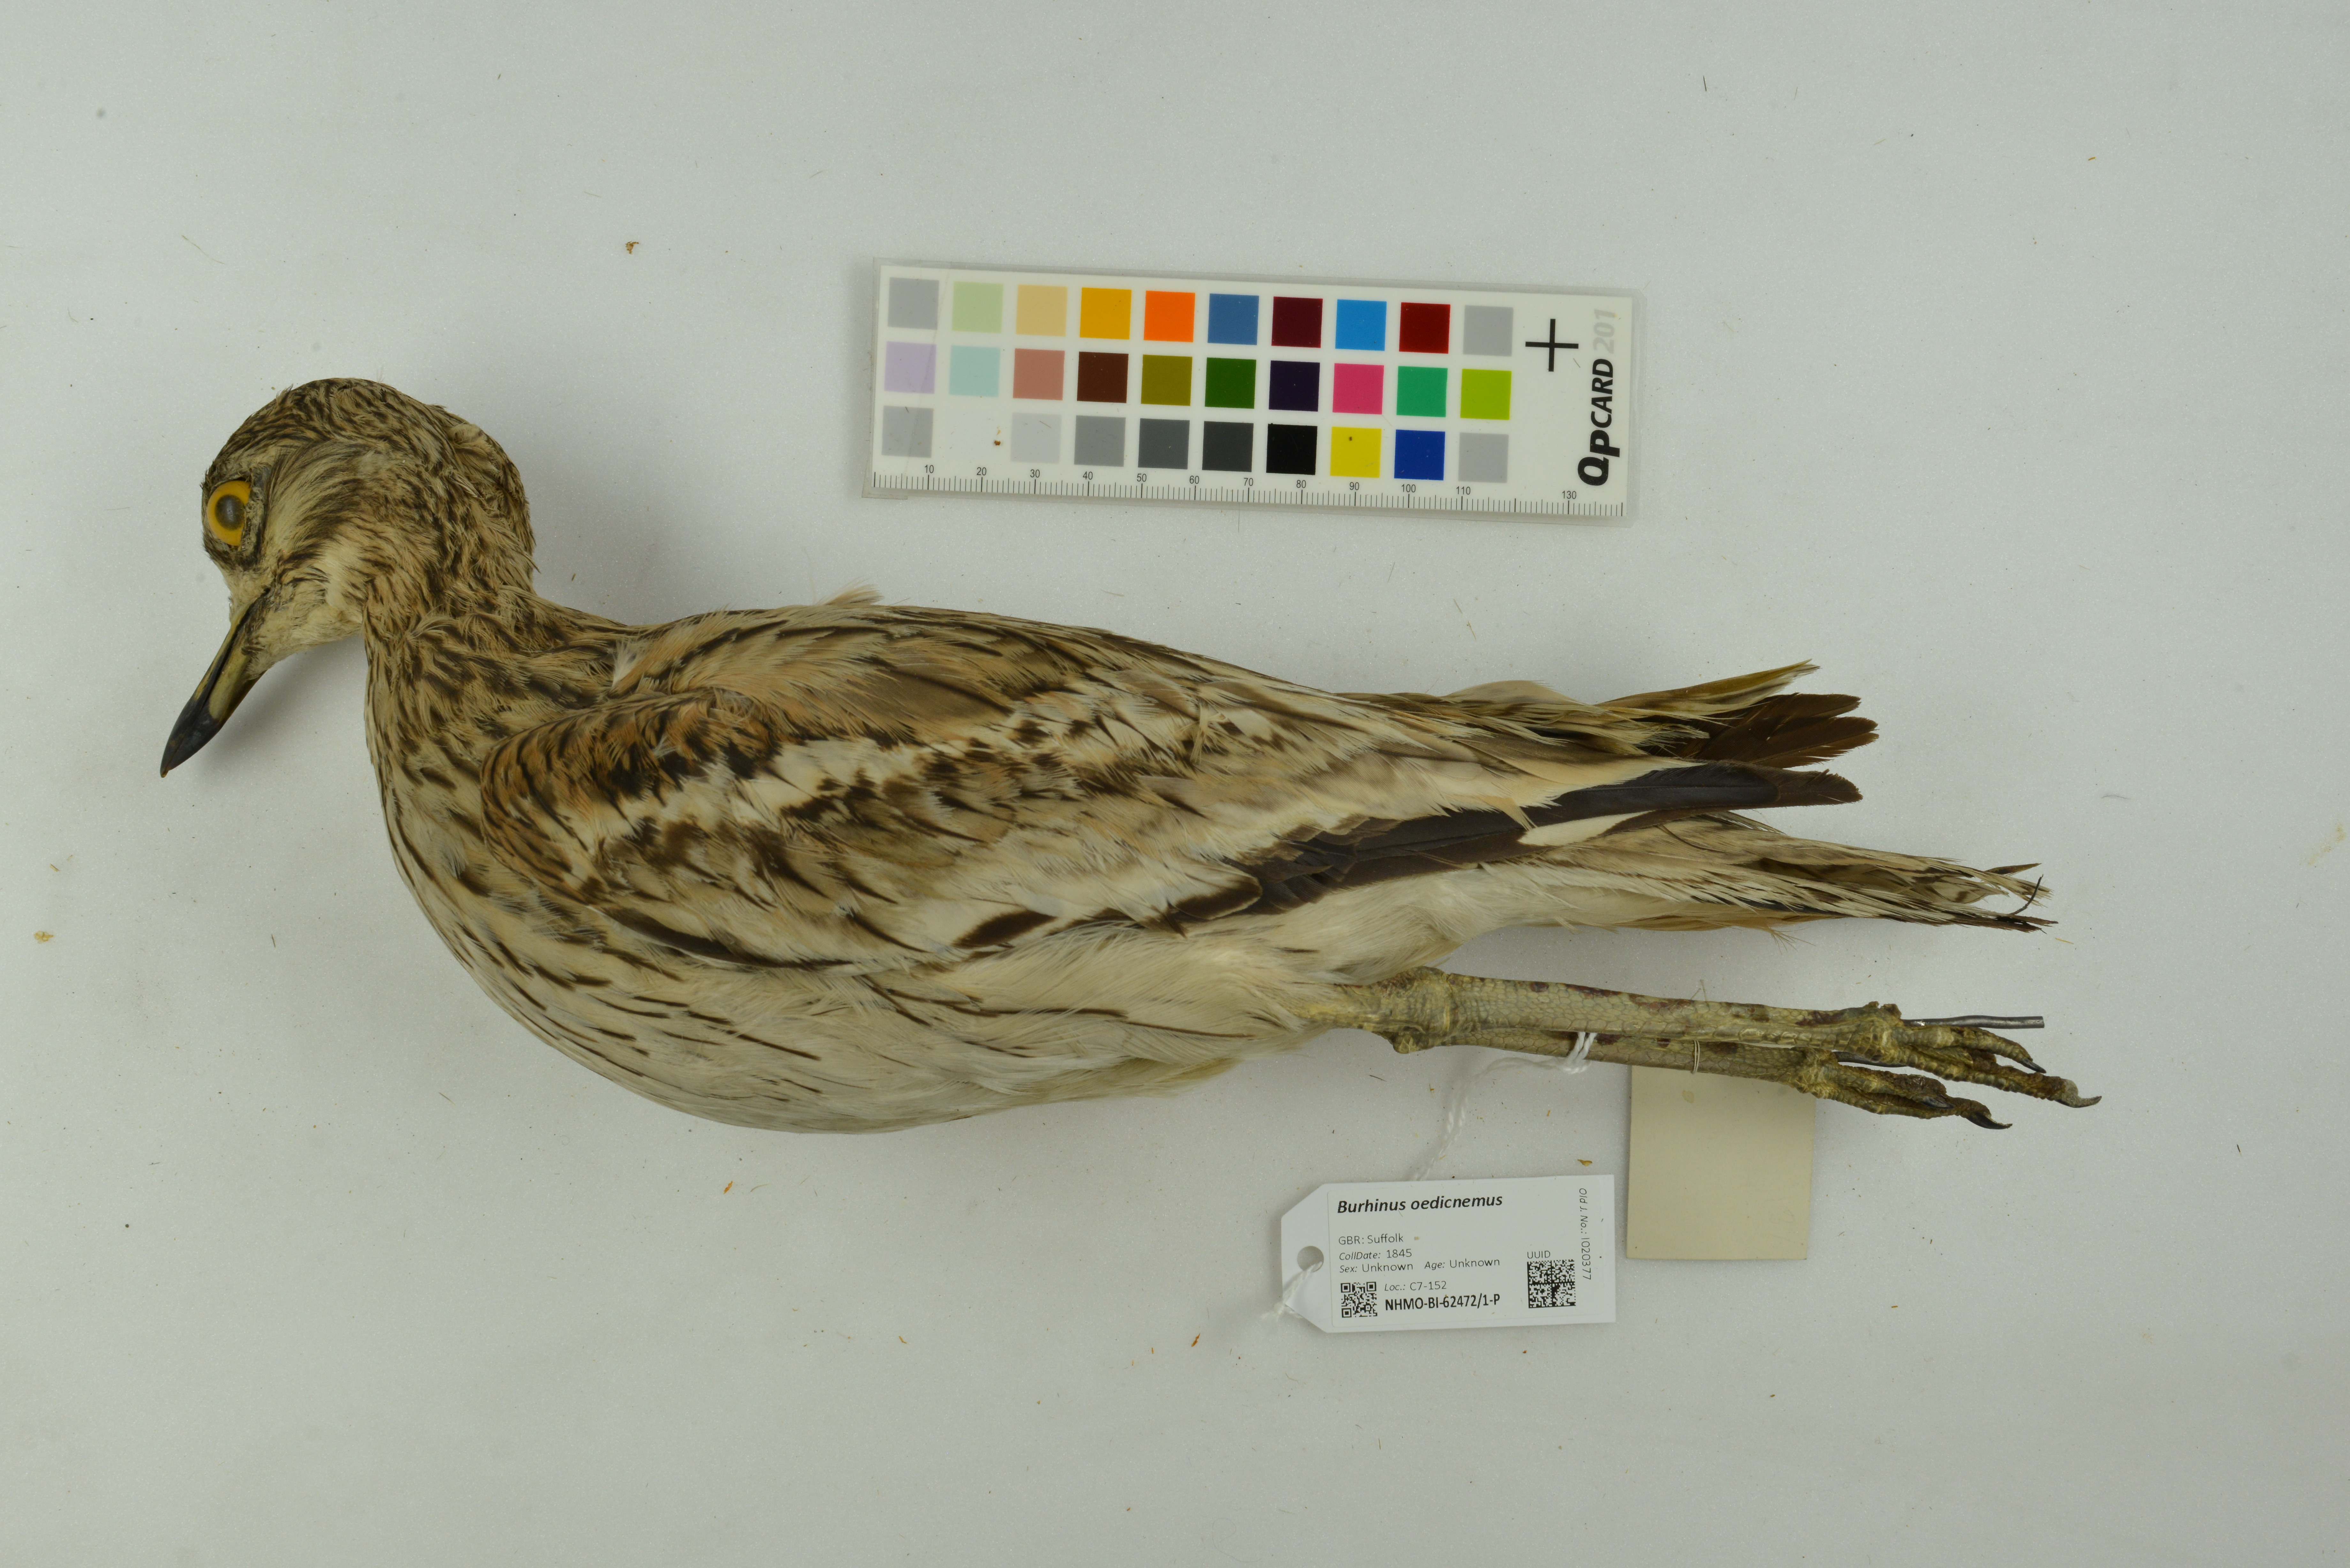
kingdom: Animalia
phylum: Chordata
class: Aves
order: Charadriiformes
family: Burhinidae
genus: Burhinus
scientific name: Burhinus oedicnemus
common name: Eurasian stone-curlew
